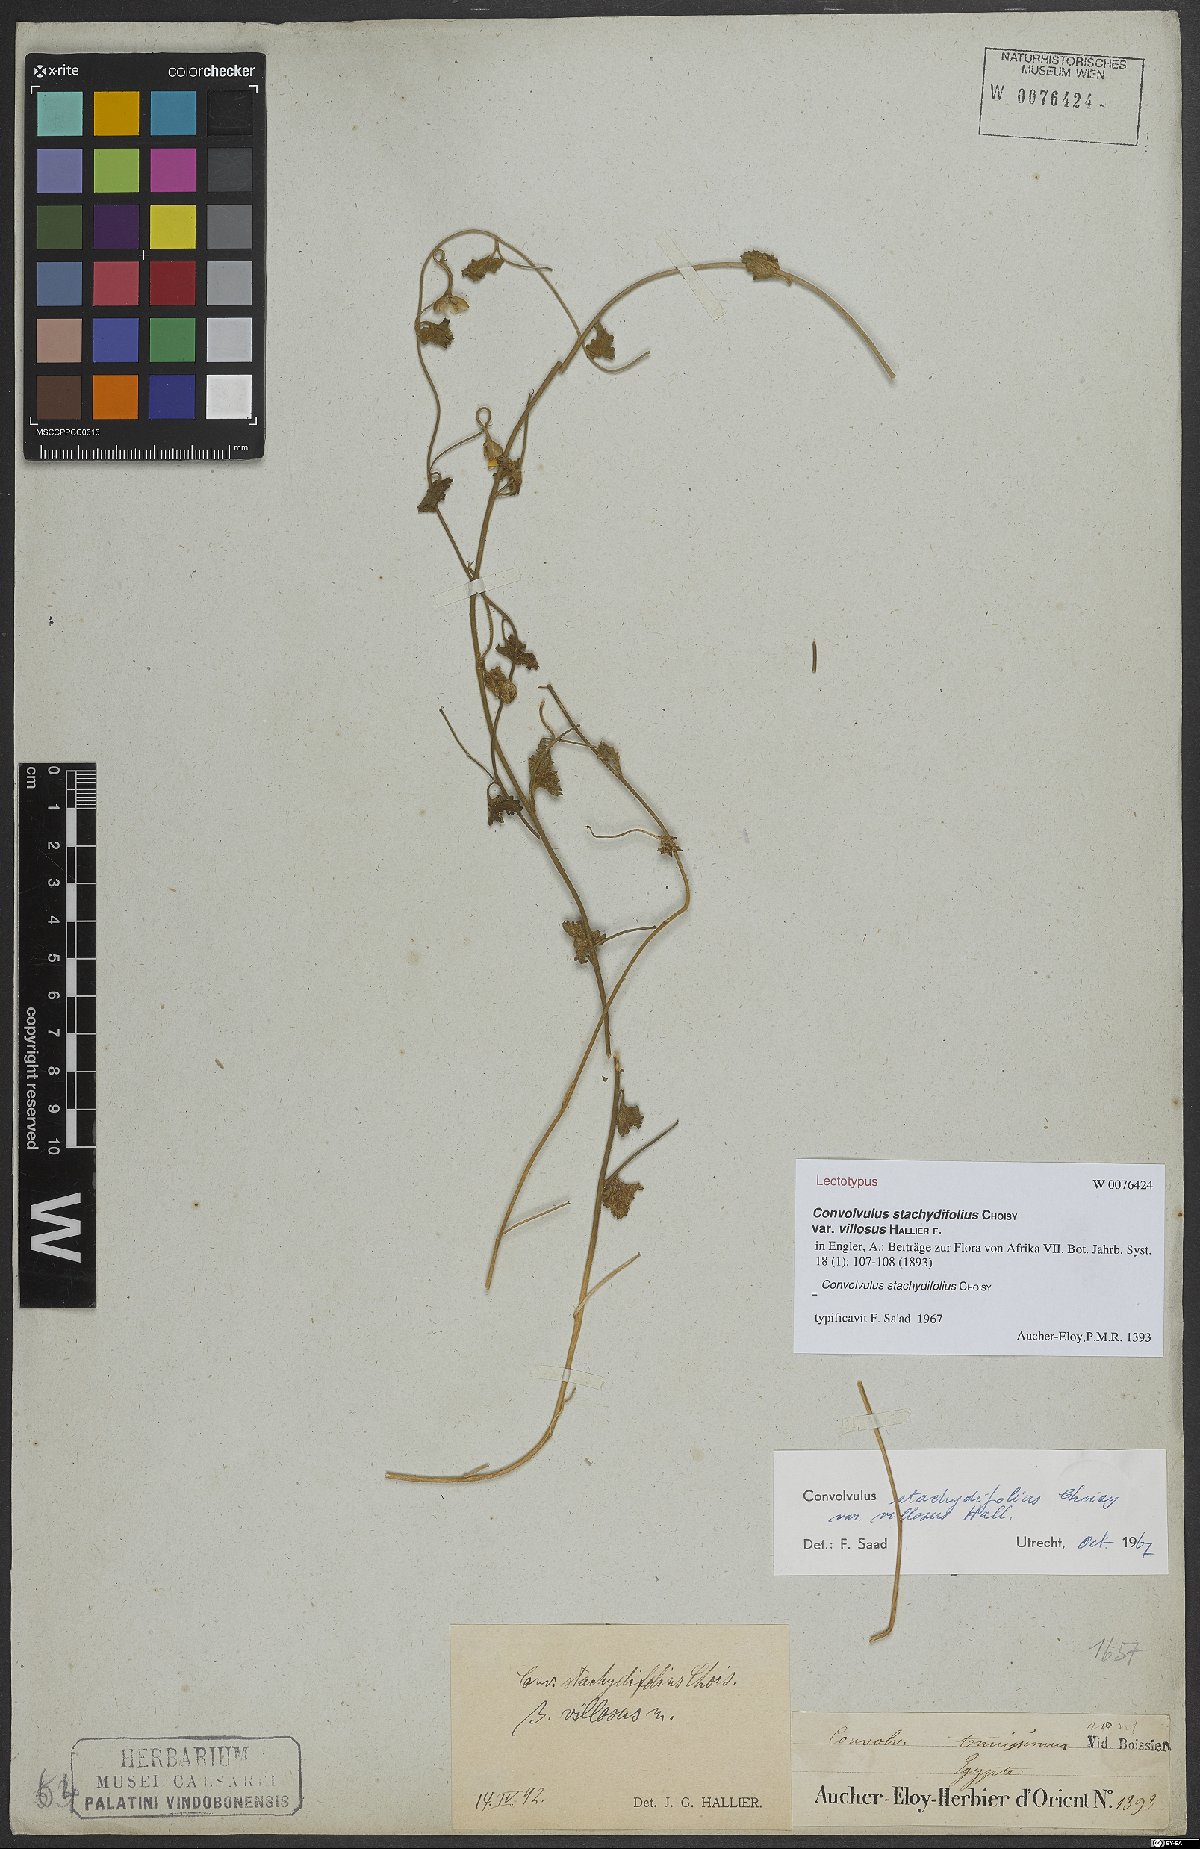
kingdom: Plantae
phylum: Tracheophyta
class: Magnoliopsida
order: Solanales
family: Convolvulaceae
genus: Convolvulus
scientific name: Convolvulus stachydifolius
